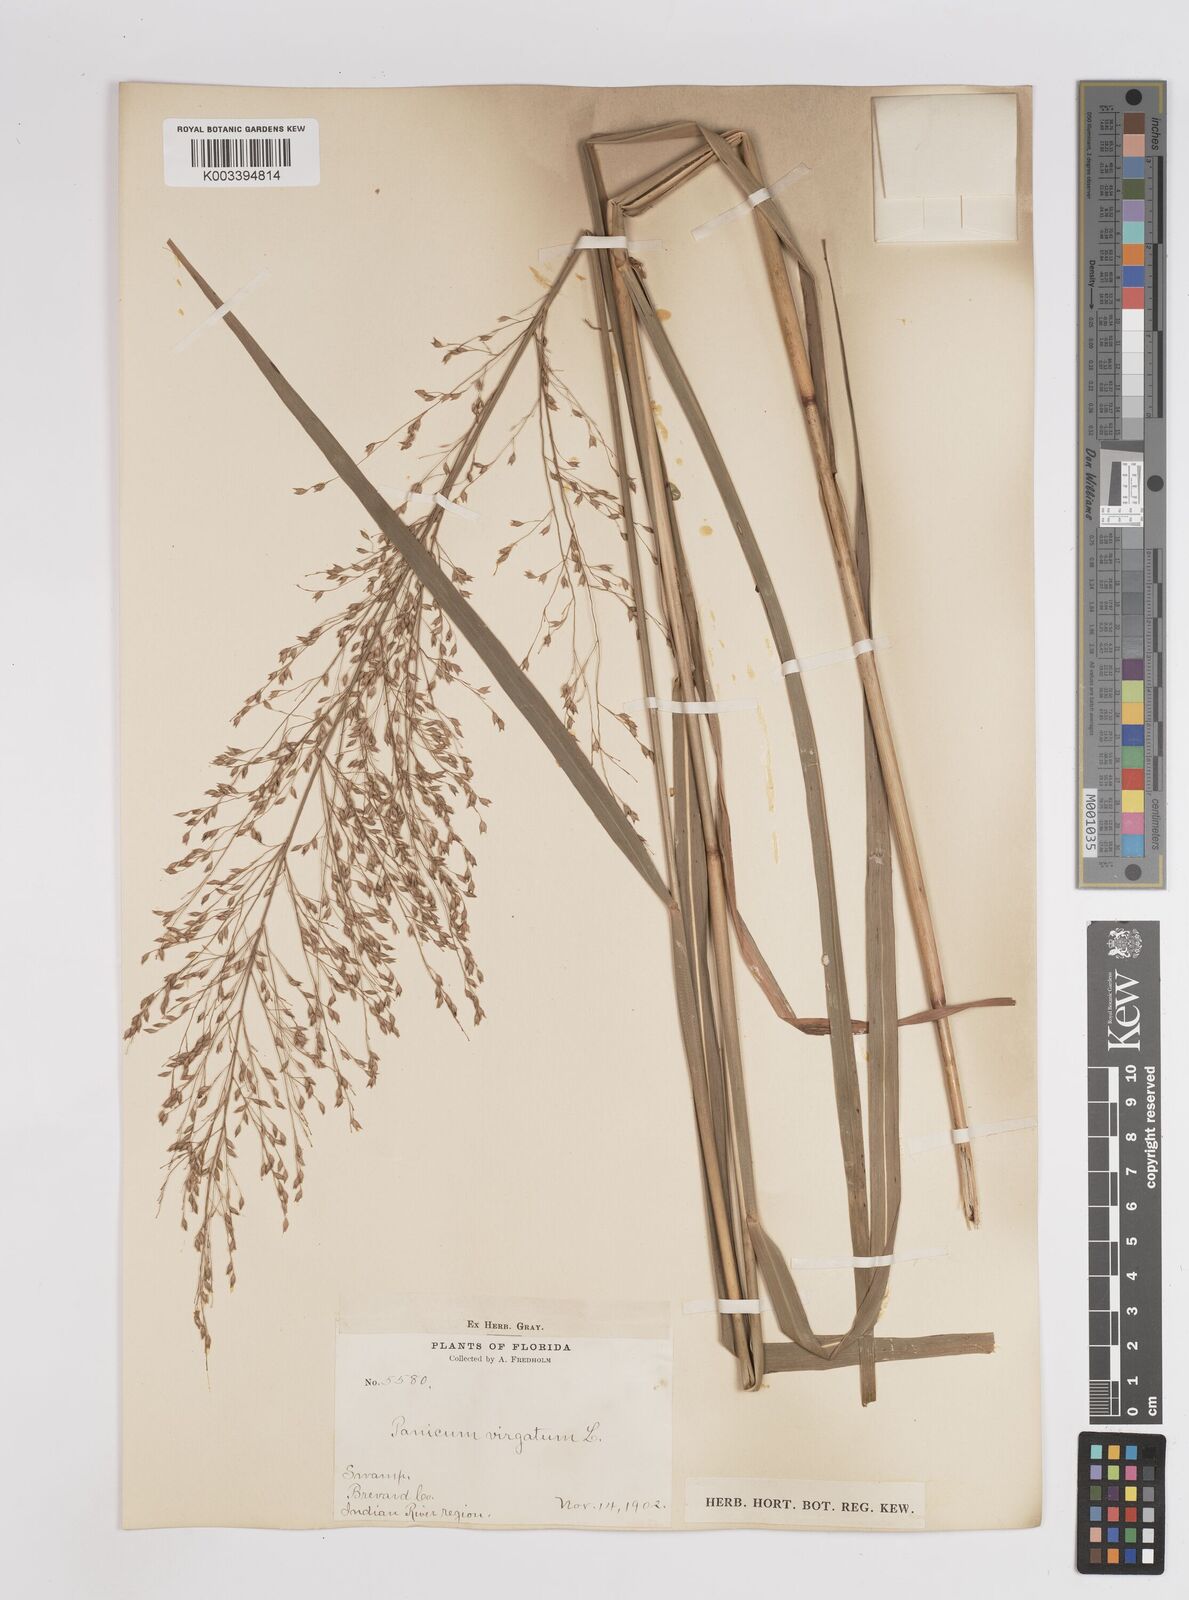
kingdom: Plantae
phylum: Tracheophyta
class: Liliopsida
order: Poales
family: Poaceae
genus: Panicum
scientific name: Panicum virgatum
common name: Switchgrass
